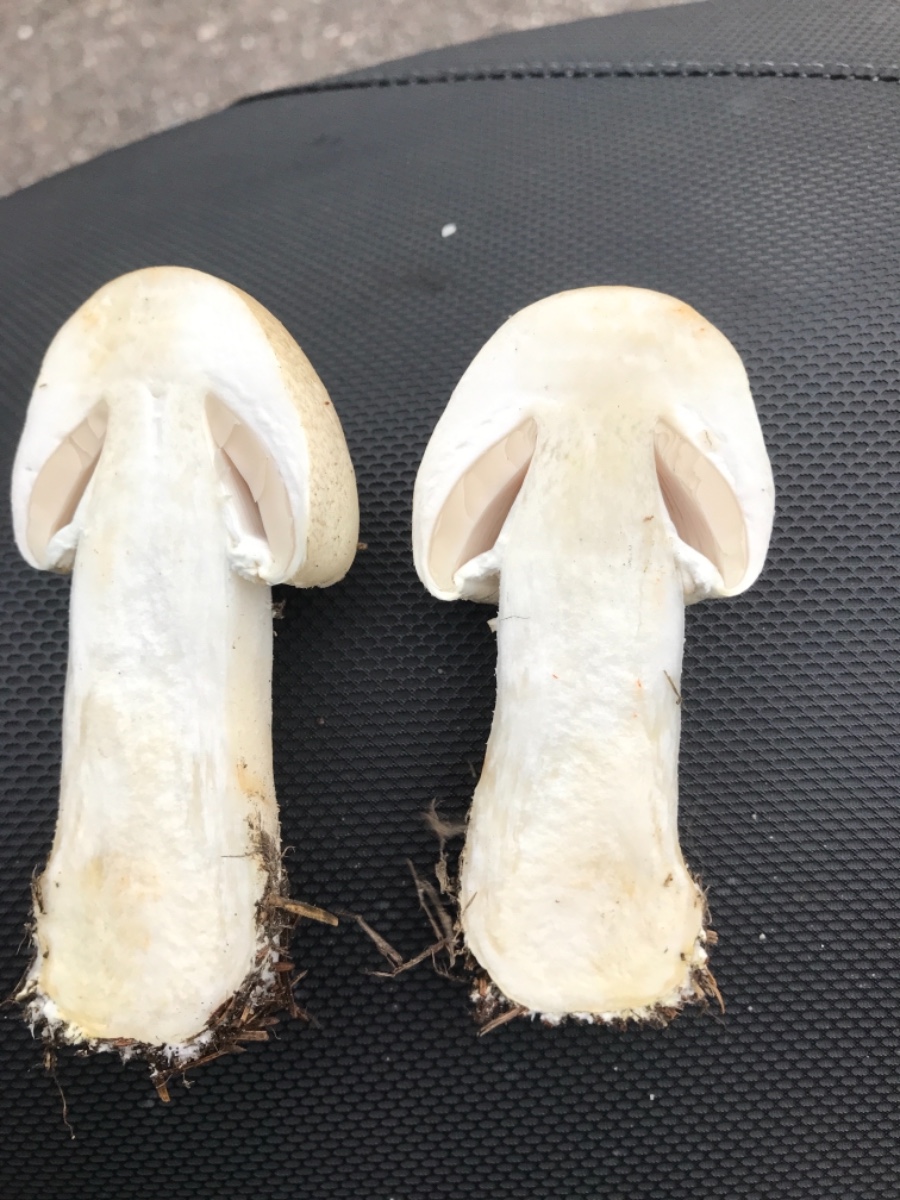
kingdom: Fungi
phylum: Basidiomycota
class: Agaricomycetes
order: Agaricales
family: Agaricaceae
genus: Agaricus
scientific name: Agaricus arvensis
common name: ager-champignon
